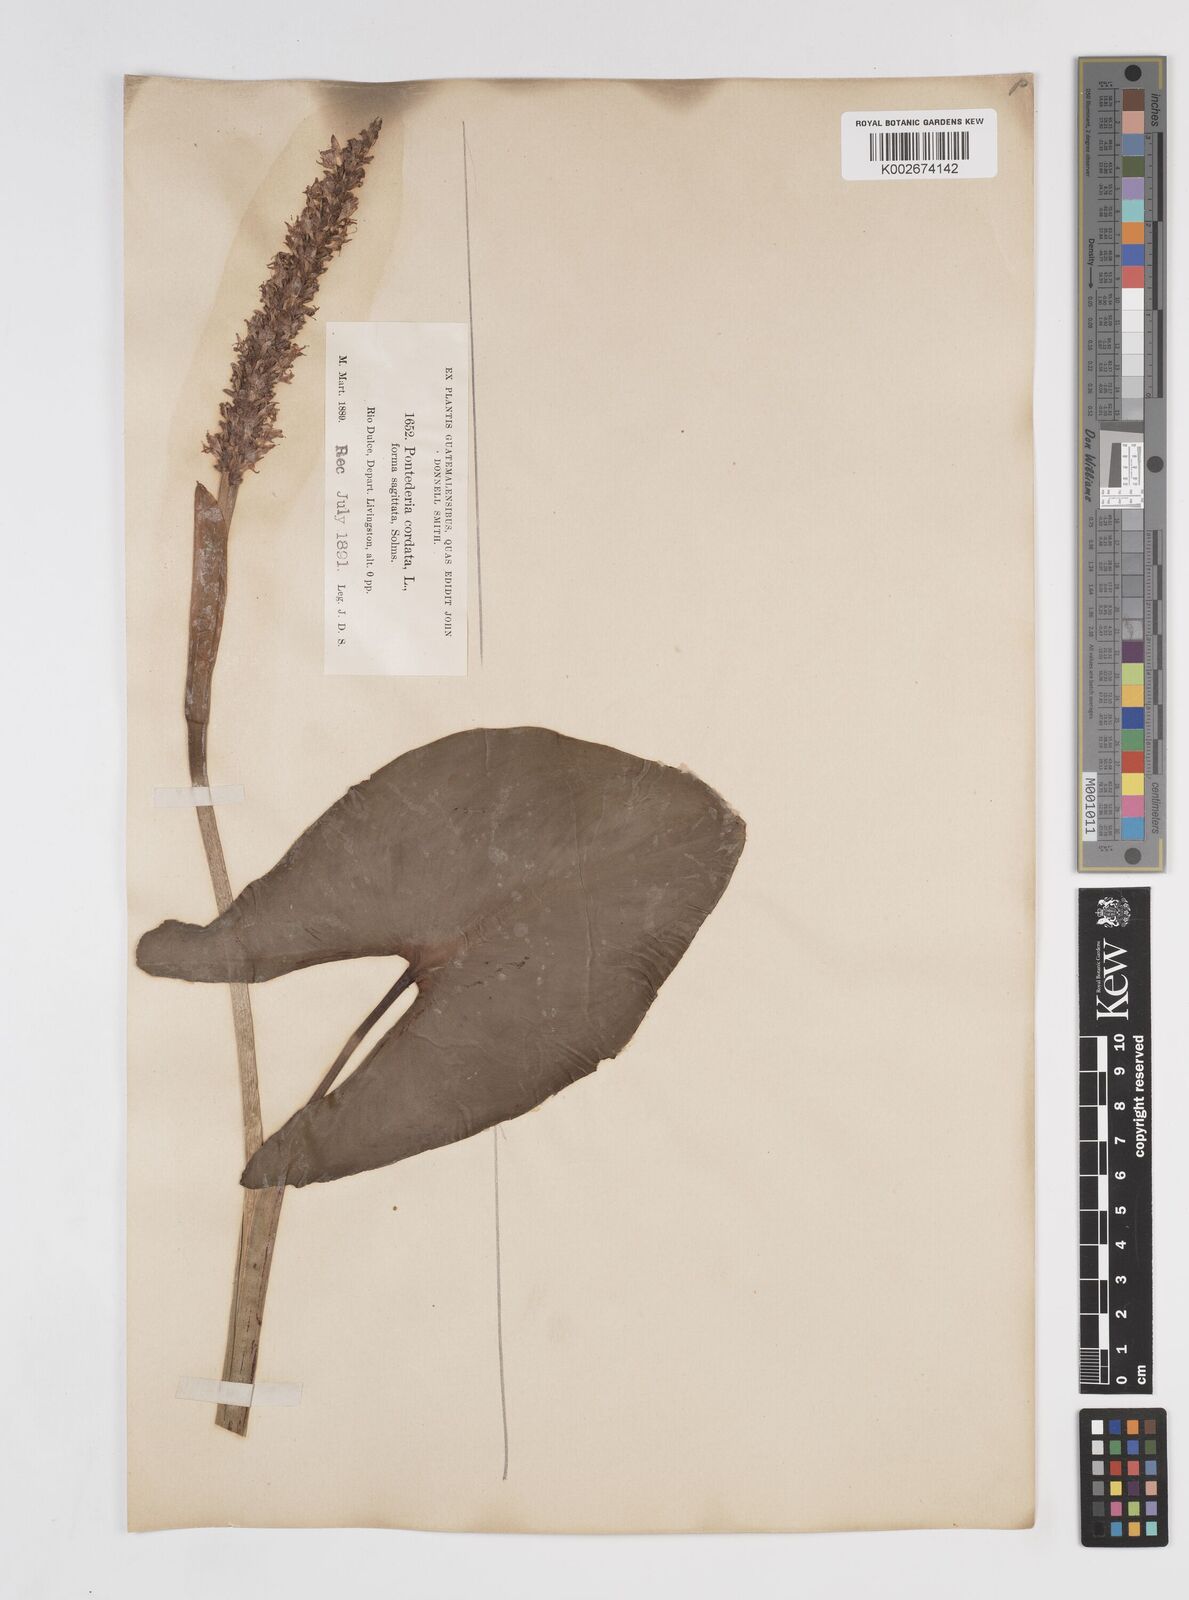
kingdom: Plantae
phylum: Tracheophyta
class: Liliopsida
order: Commelinales
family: Pontederiaceae
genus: Pontederia
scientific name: Pontederia sagittata
